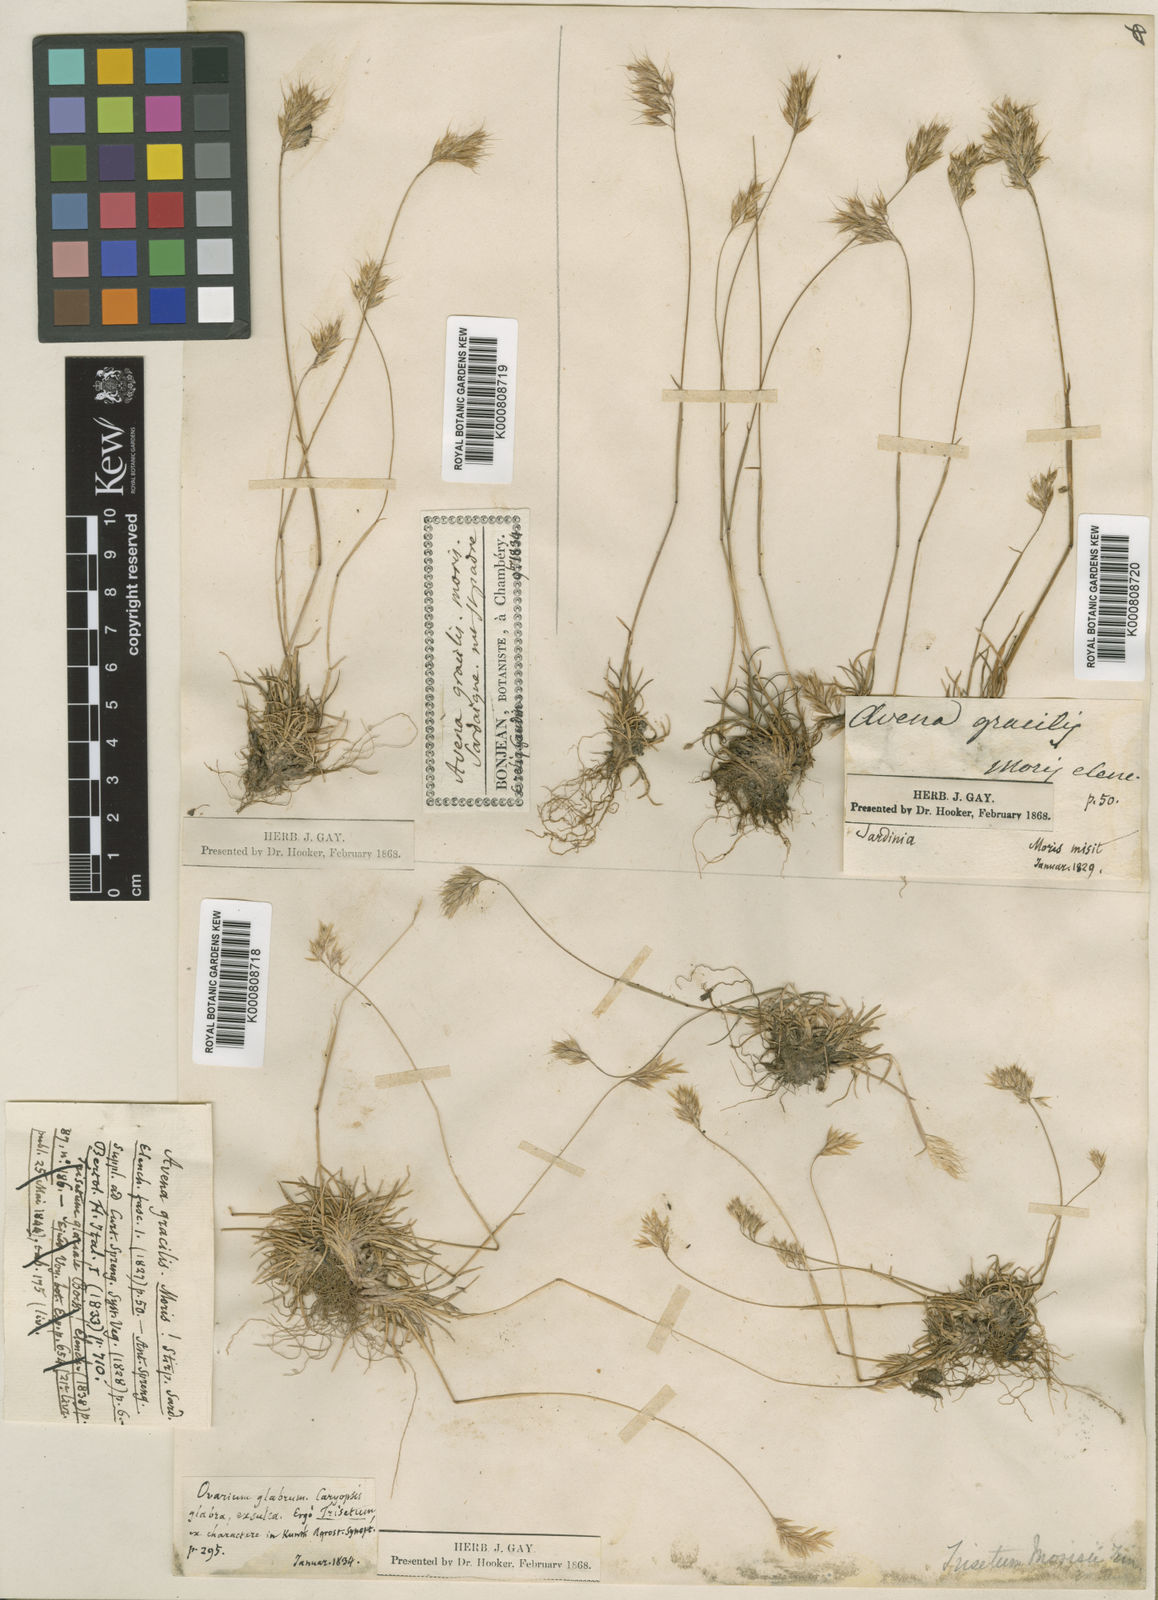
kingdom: Plantae
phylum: Tracheophyta
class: Liliopsida
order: Poales
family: Poaceae
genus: Acrospelion
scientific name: Acrospelion glaciale
